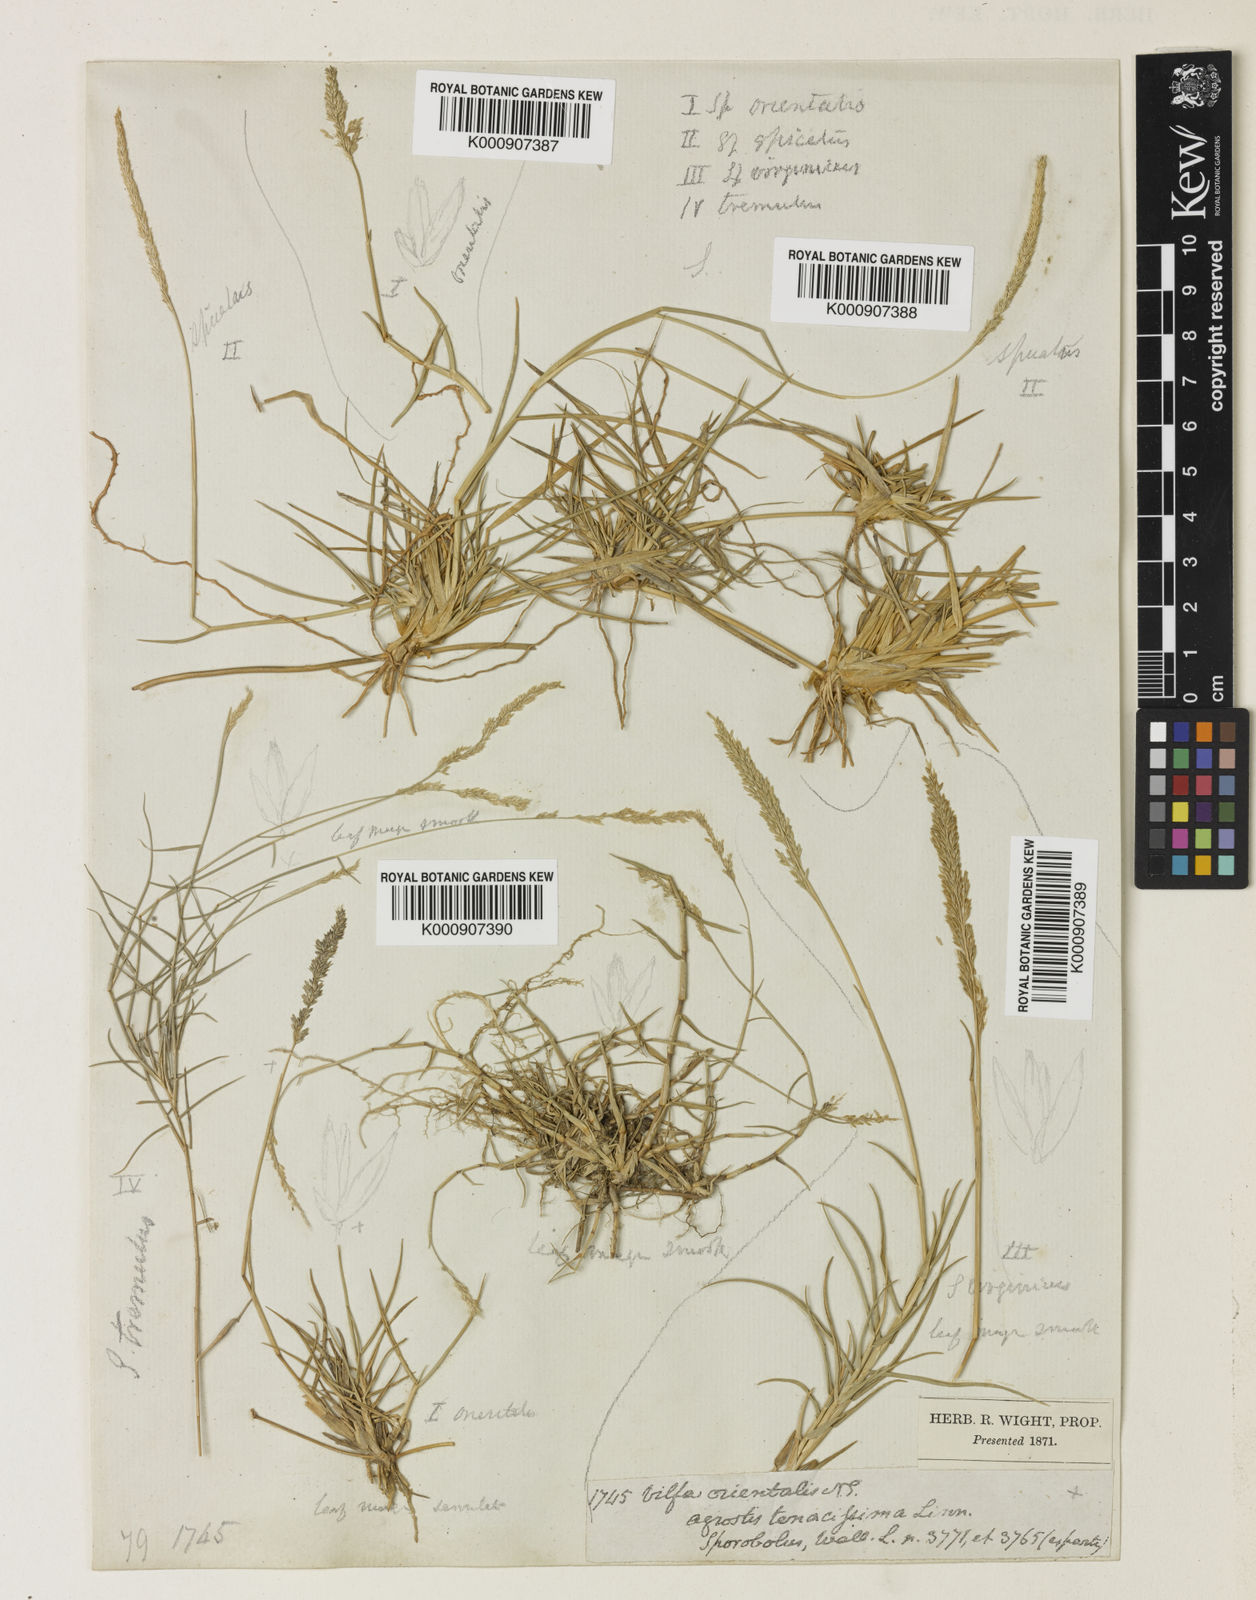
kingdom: Plantae
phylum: Tracheophyta
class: Liliopsida
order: Poales
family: Poaceae
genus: Sporobolus
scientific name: Sporobolus maderaspatanus
